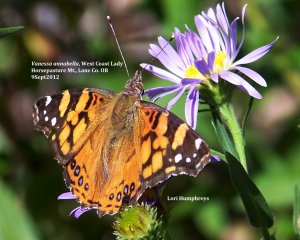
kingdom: Animalia
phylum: Arthropoda
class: Insecta
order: Lepidoptera
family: Nymphalidae
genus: Vanessa
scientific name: Vanessa annabella
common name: West Coast Lady
